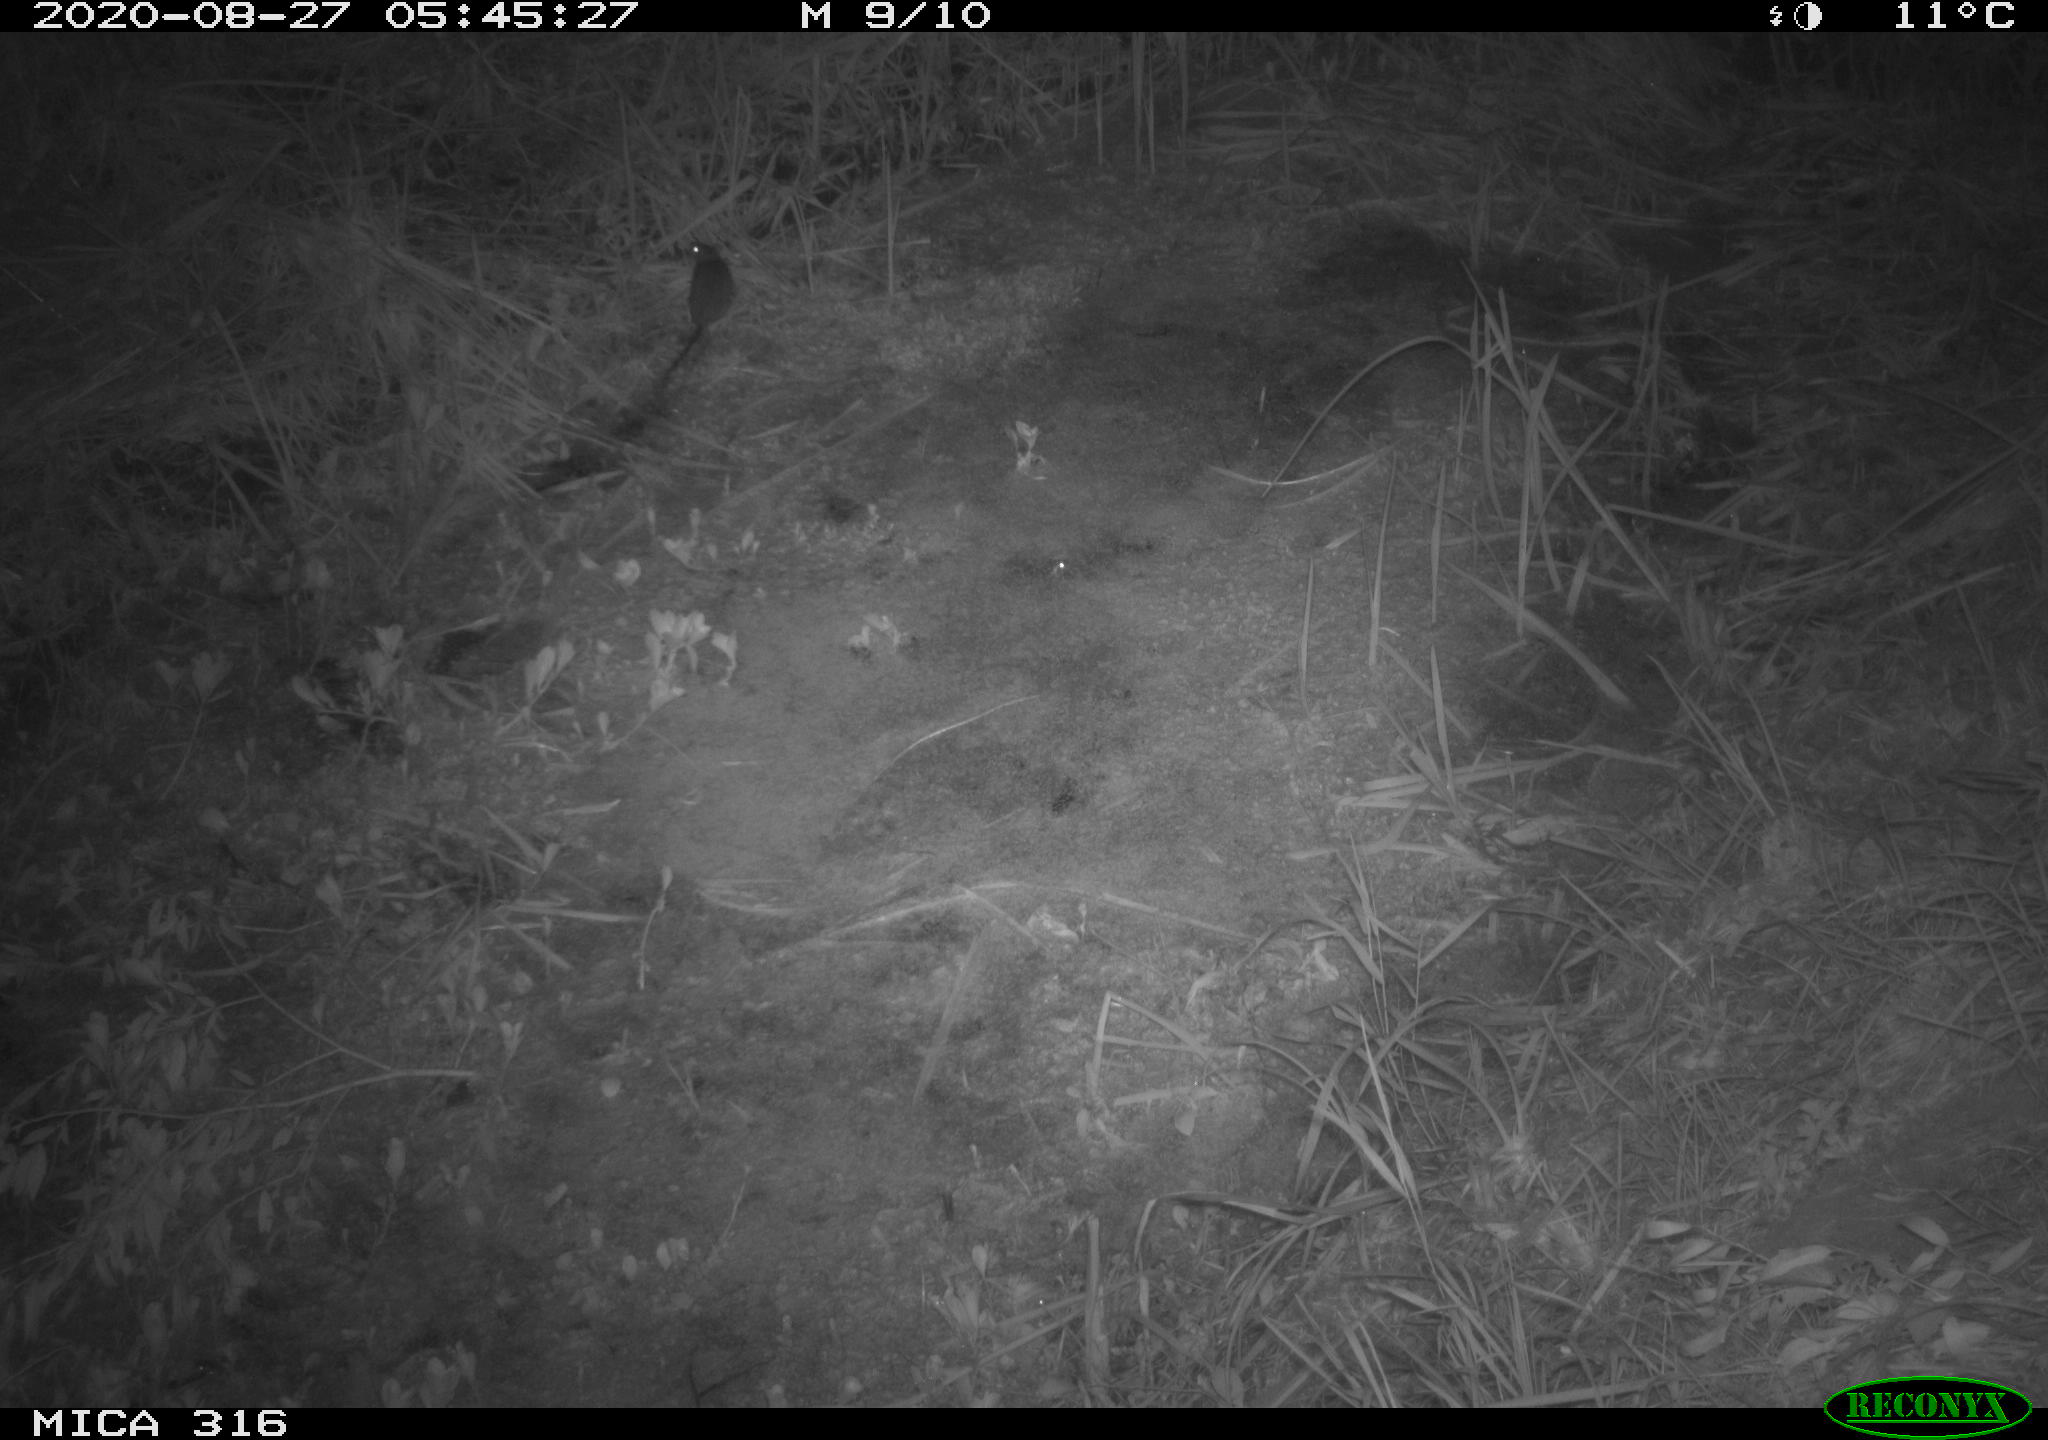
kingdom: Animalia
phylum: Chordata
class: Mammalia
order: Rodentia
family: Muridae
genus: Rattus
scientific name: Rattus norvegicus
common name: Brown rat
